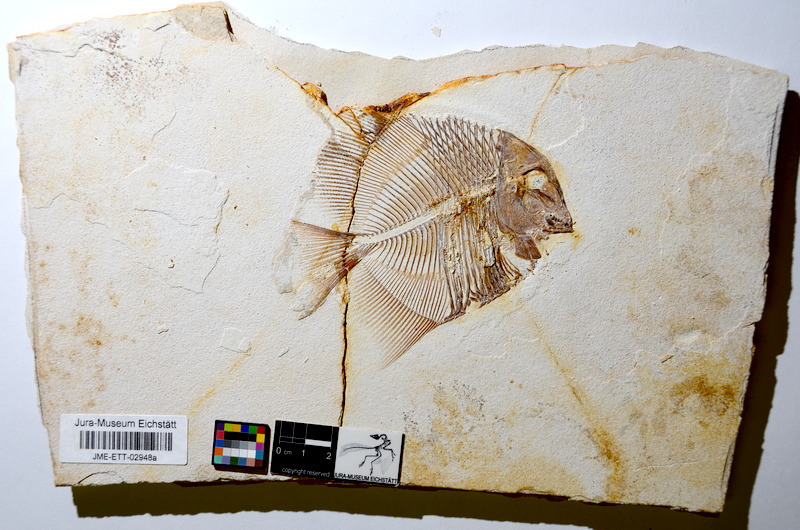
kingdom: Animalia
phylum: Chordata
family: Pycnodontidae
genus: Turbomesodon
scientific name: Turbomesodon relegans
